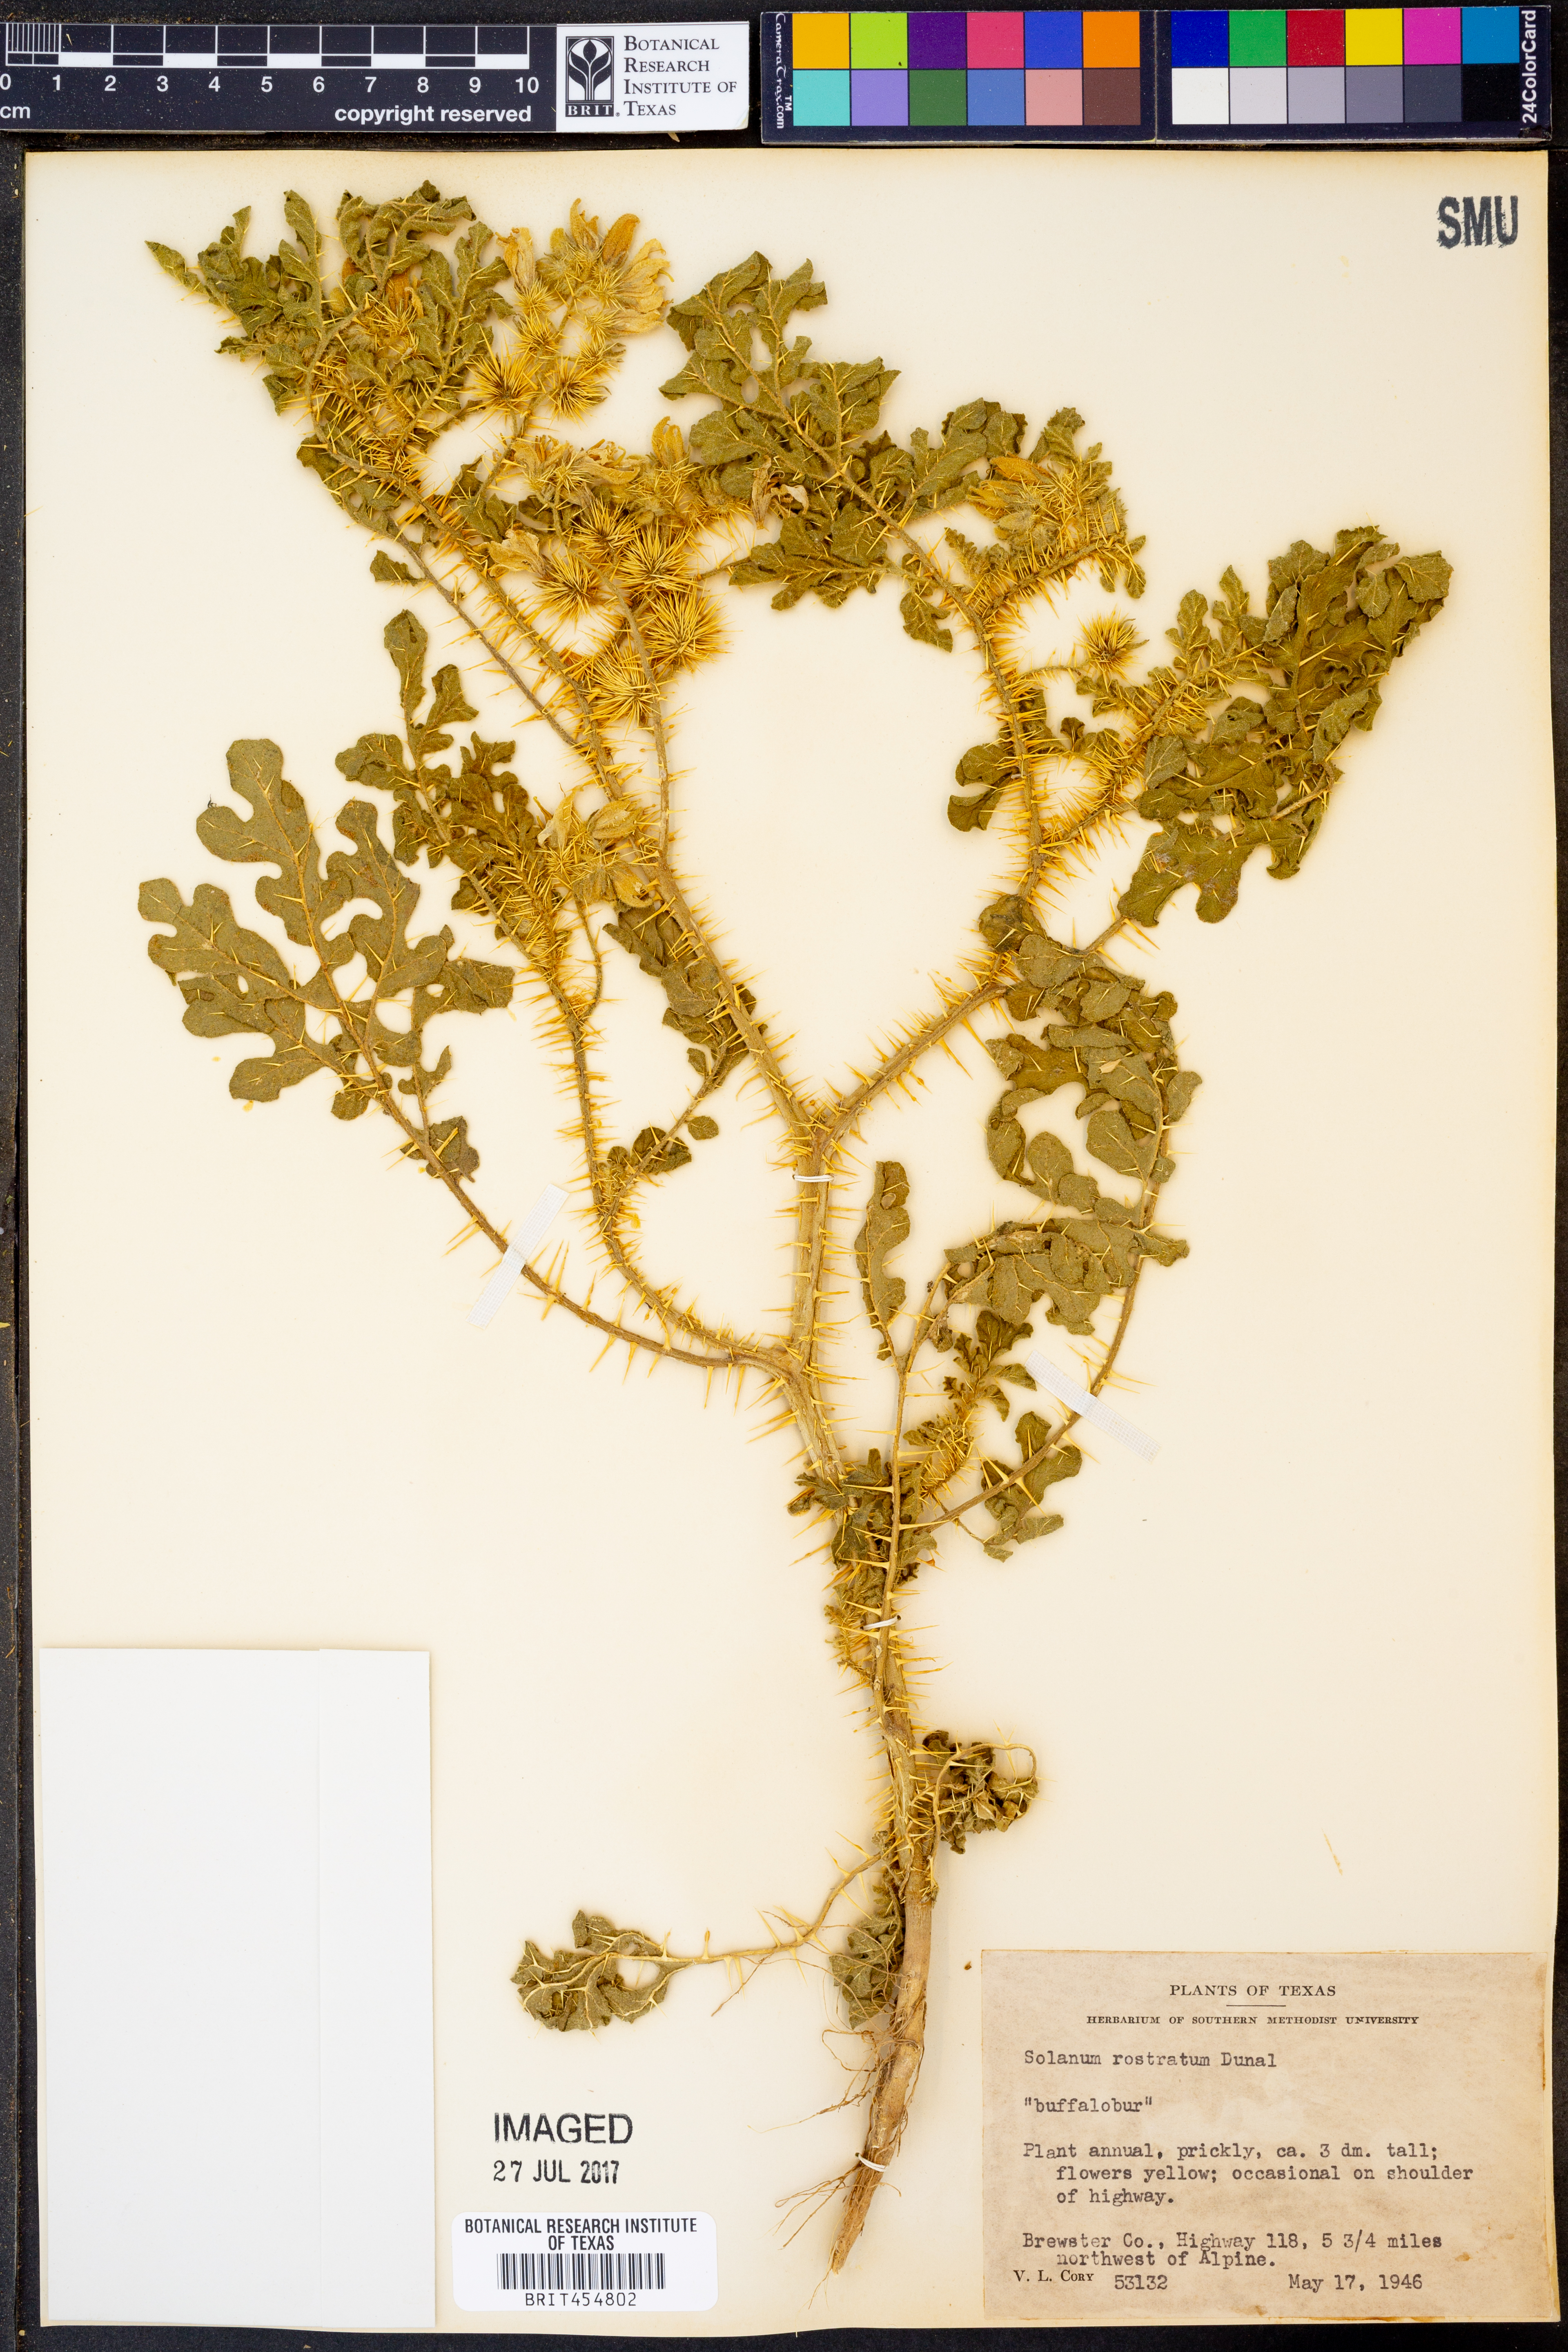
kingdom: Plantae
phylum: Tracheophyta
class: Magnoliopsida
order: Solanales
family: Solanaceae
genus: Solanum
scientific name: Solanum angustifolium
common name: Buffalobur nightshade
